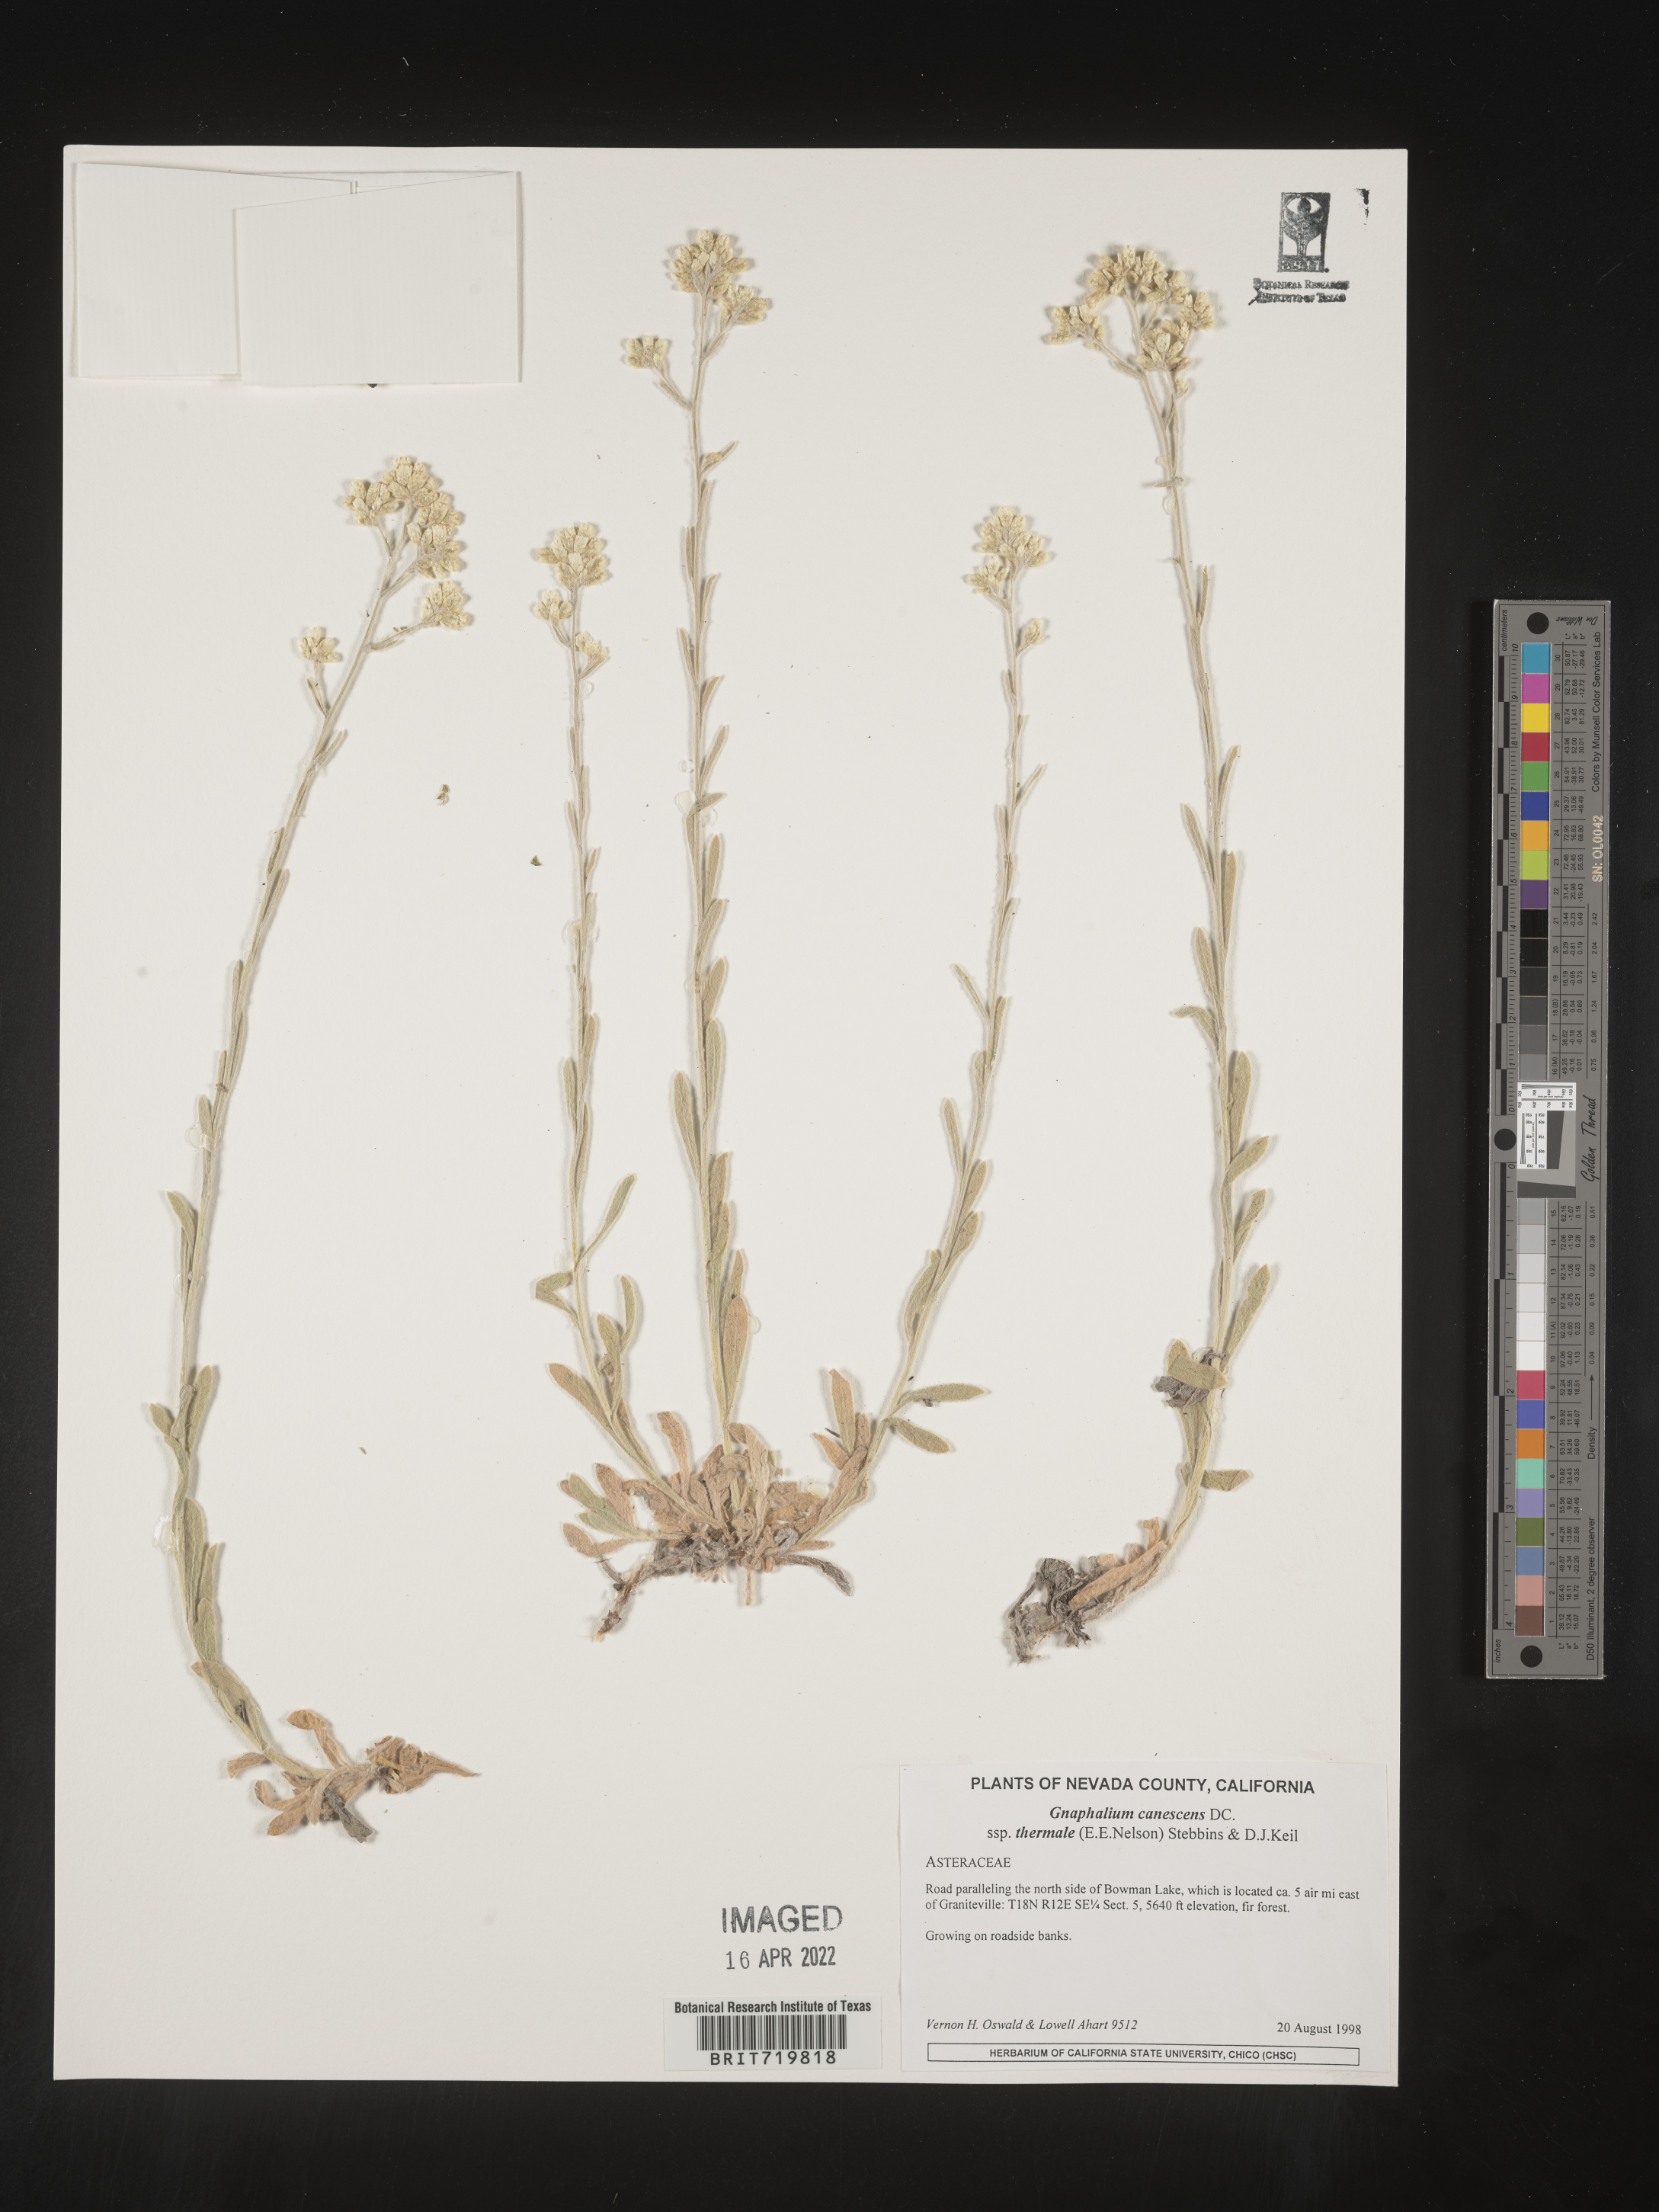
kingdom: Plantae
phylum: Tracheophyta
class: Magnoliopsida
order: Asterales
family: Asteraceae
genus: Gnaphalium
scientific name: Gnaphalium
